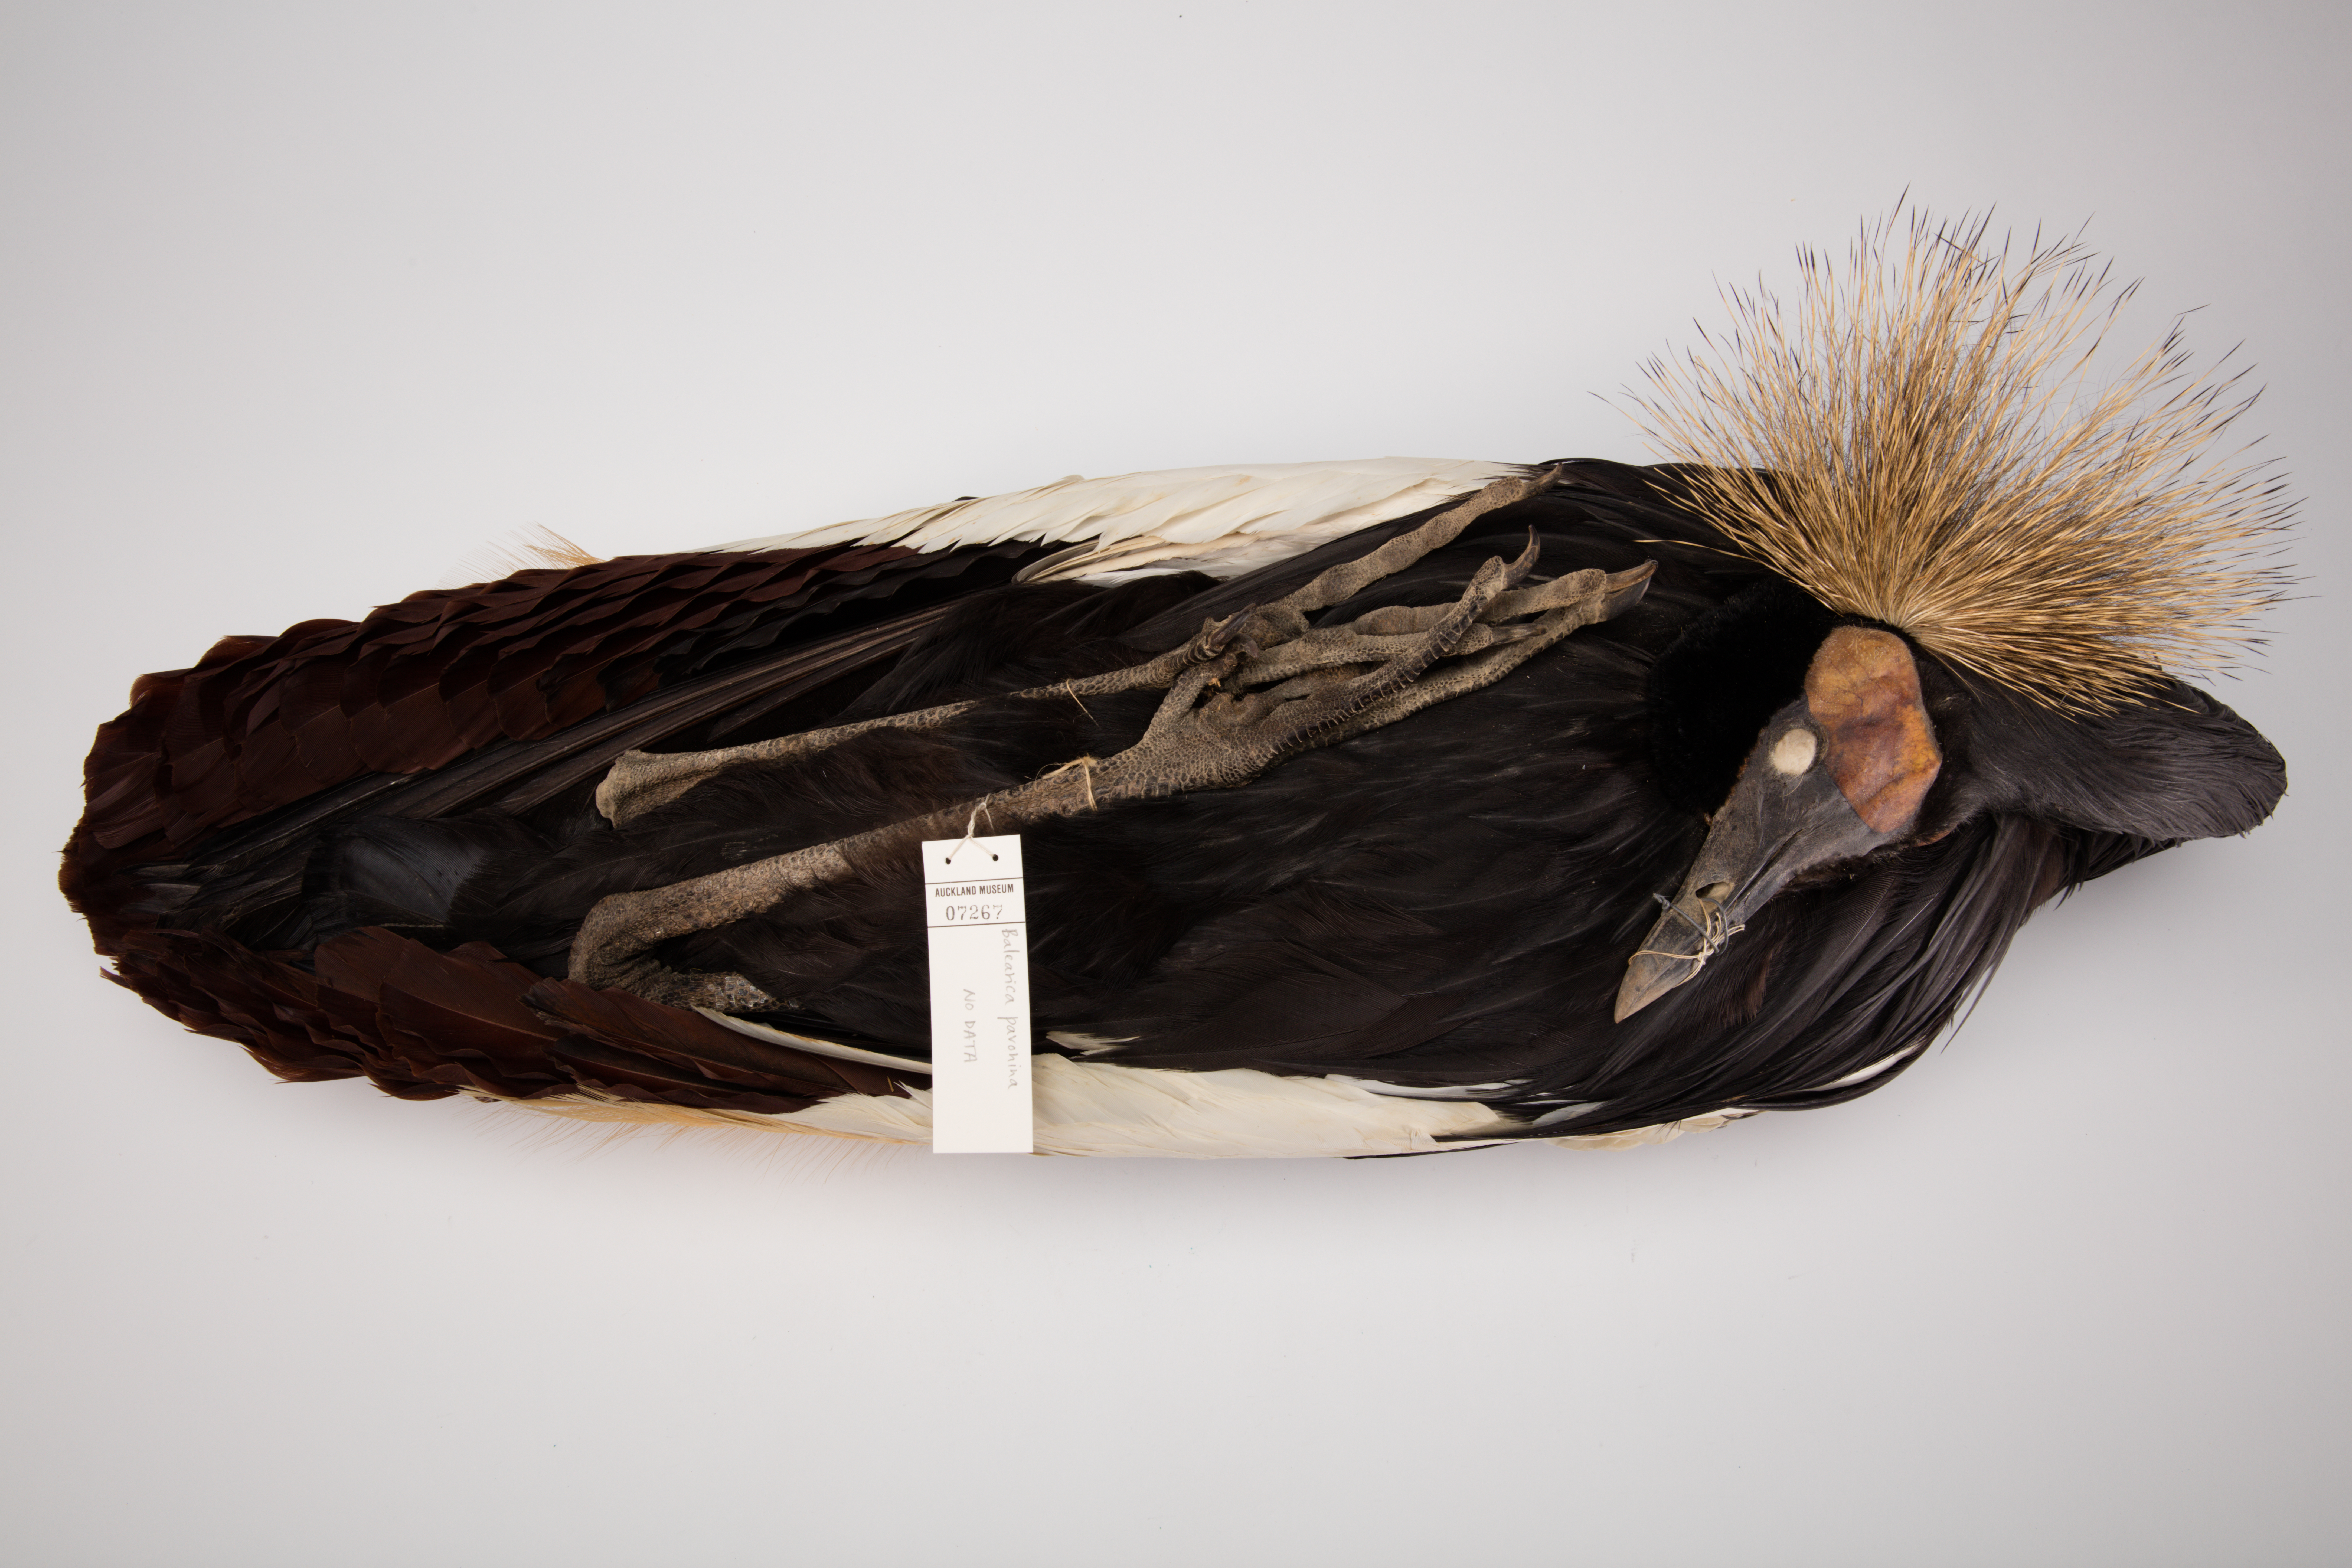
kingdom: Animalia
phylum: Chordata
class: Aves
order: Gruiformes
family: Gruidae
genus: Balearica
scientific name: Balearica pavonina
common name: Black crowned crane
